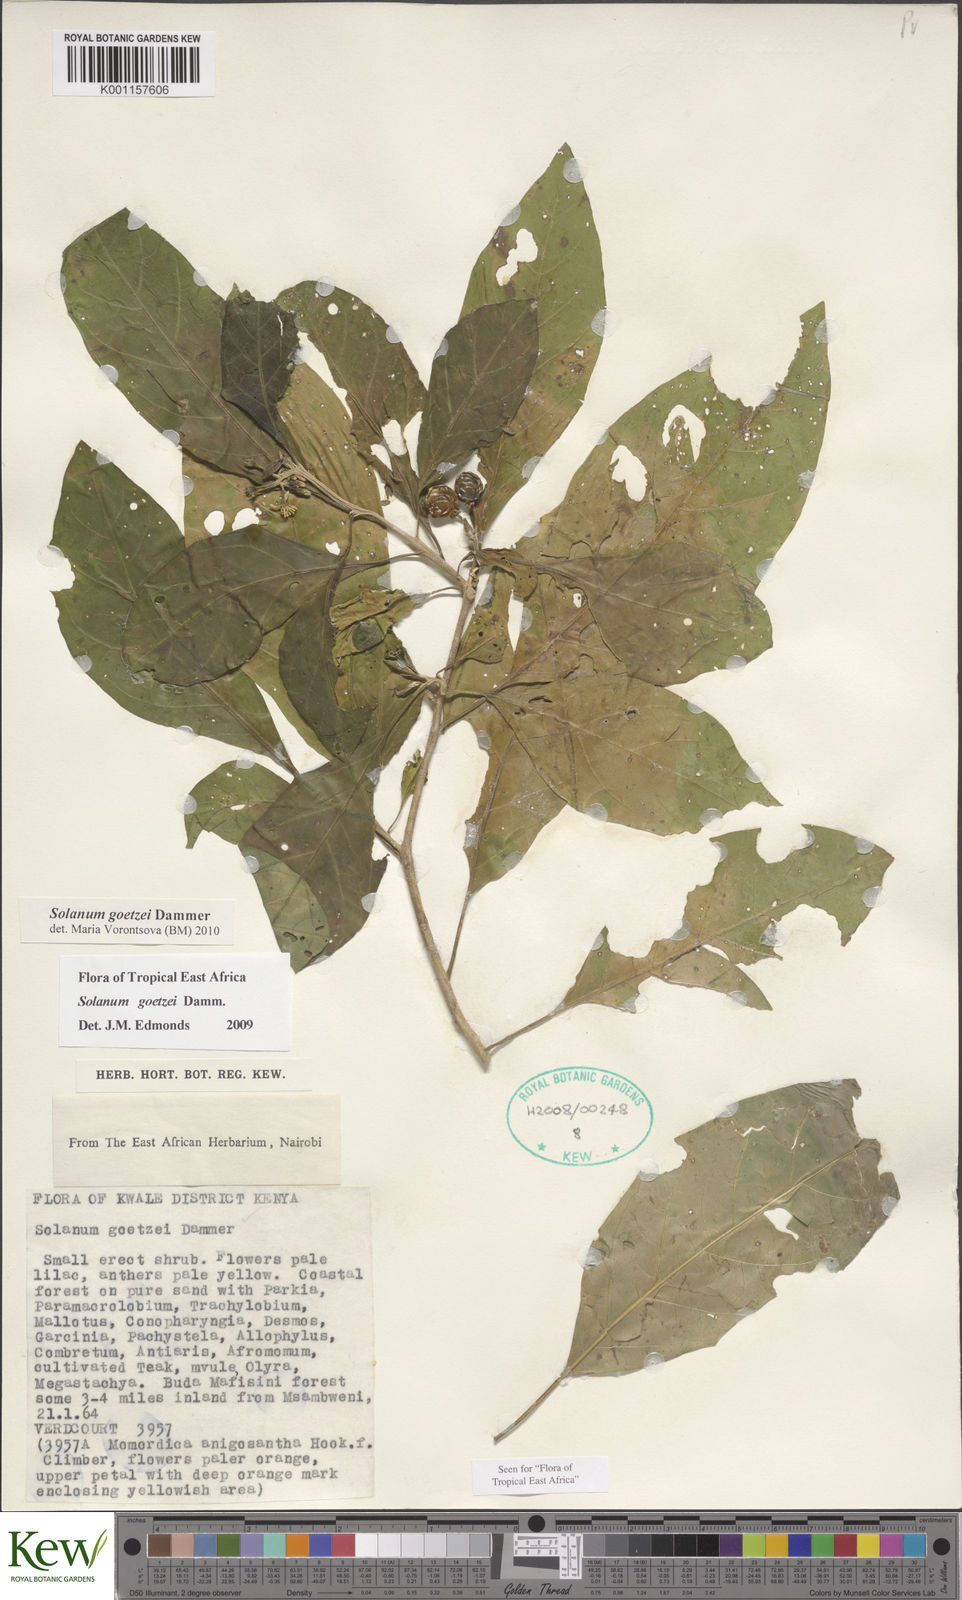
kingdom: Plantae
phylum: Tracheophyta
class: Magnoliopsida
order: Solanales
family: Solanaceae
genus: Solanum
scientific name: Solanum goetzei
